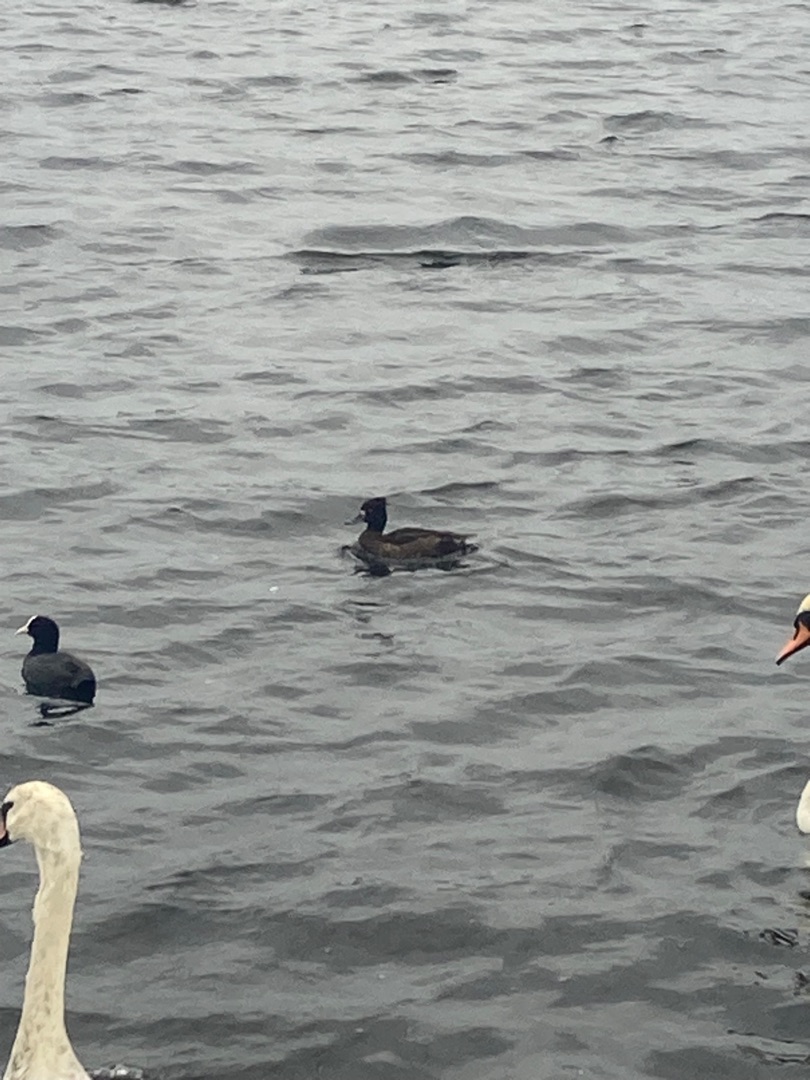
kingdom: Animalia
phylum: Chordata
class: Aves
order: Anseriformes
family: Anatidae
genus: Aythya
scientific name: Aythya fuligula
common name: Troldand
